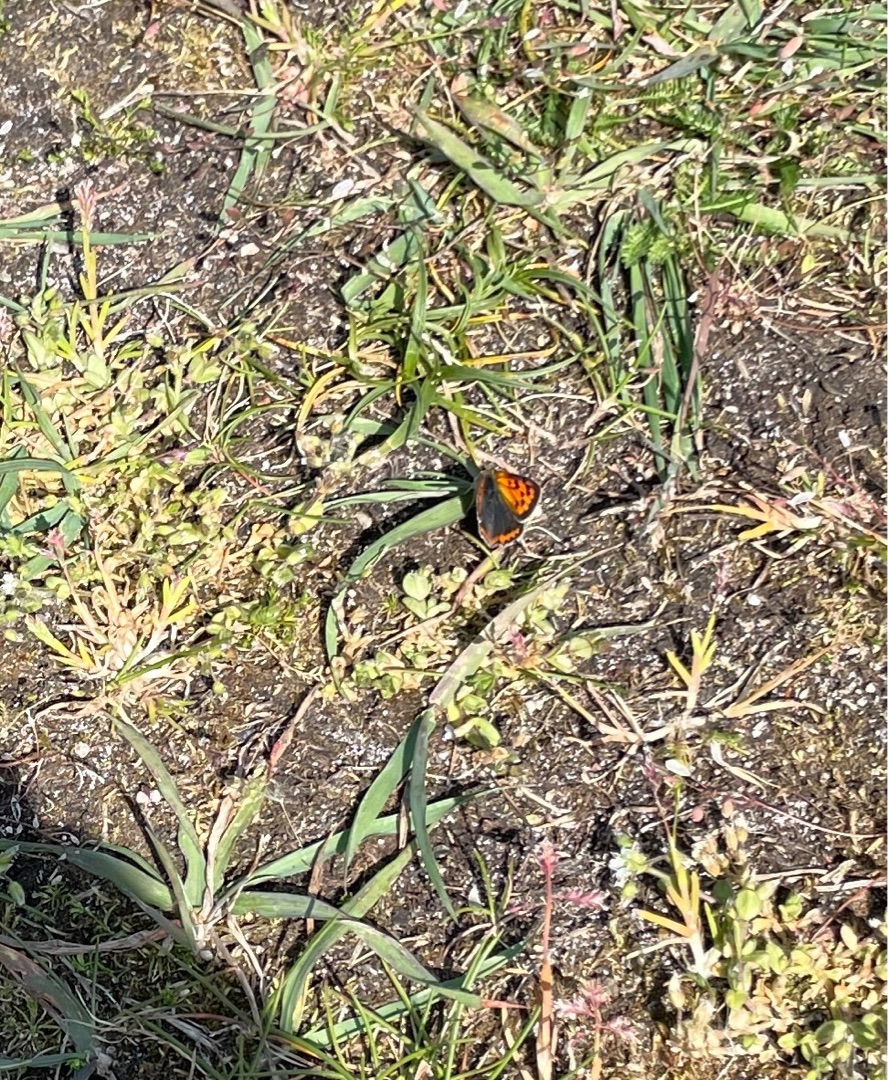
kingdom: Animalia
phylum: Arthropoda
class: Insecta
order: Lepidoptera
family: Lycaenidae
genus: Lycaena
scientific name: Lycaena phlaeas
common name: Lille ildfugl
